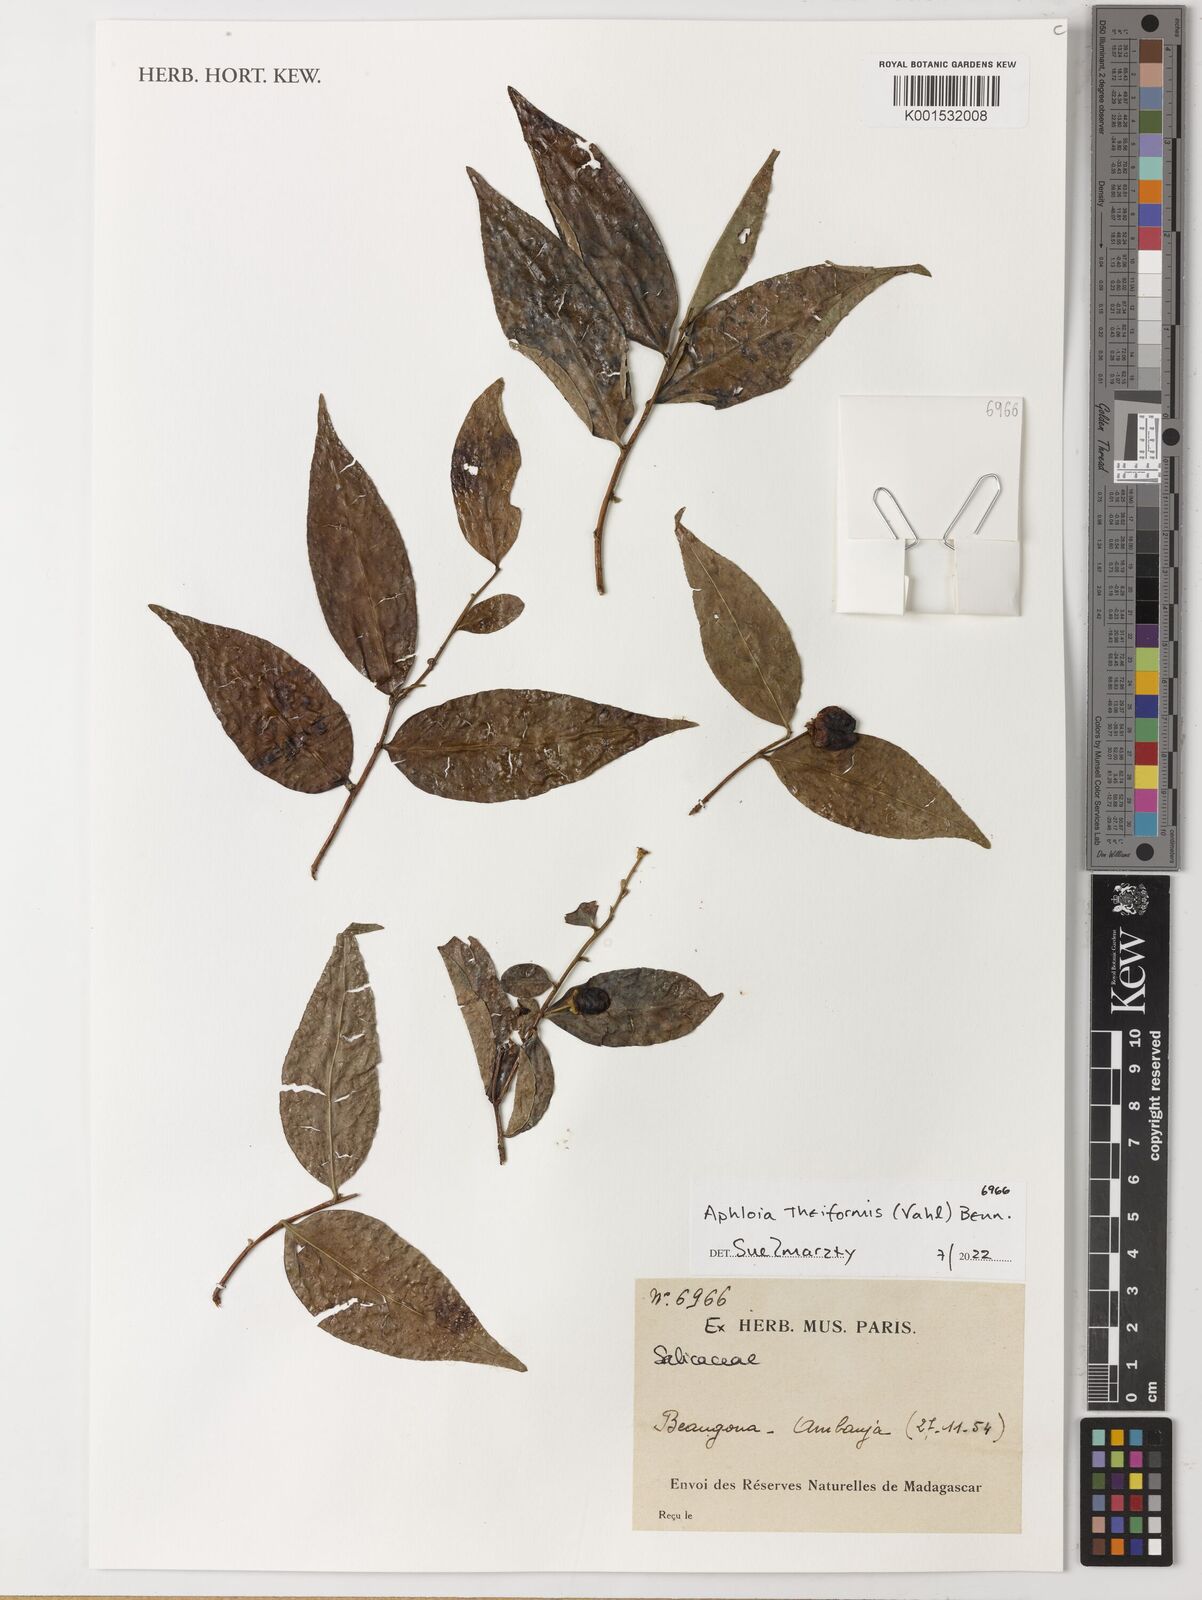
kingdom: Plantae
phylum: Tracheophyta
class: Magnoliopsida
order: Malpighiales
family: Salicaceae
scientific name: Salicaceae
